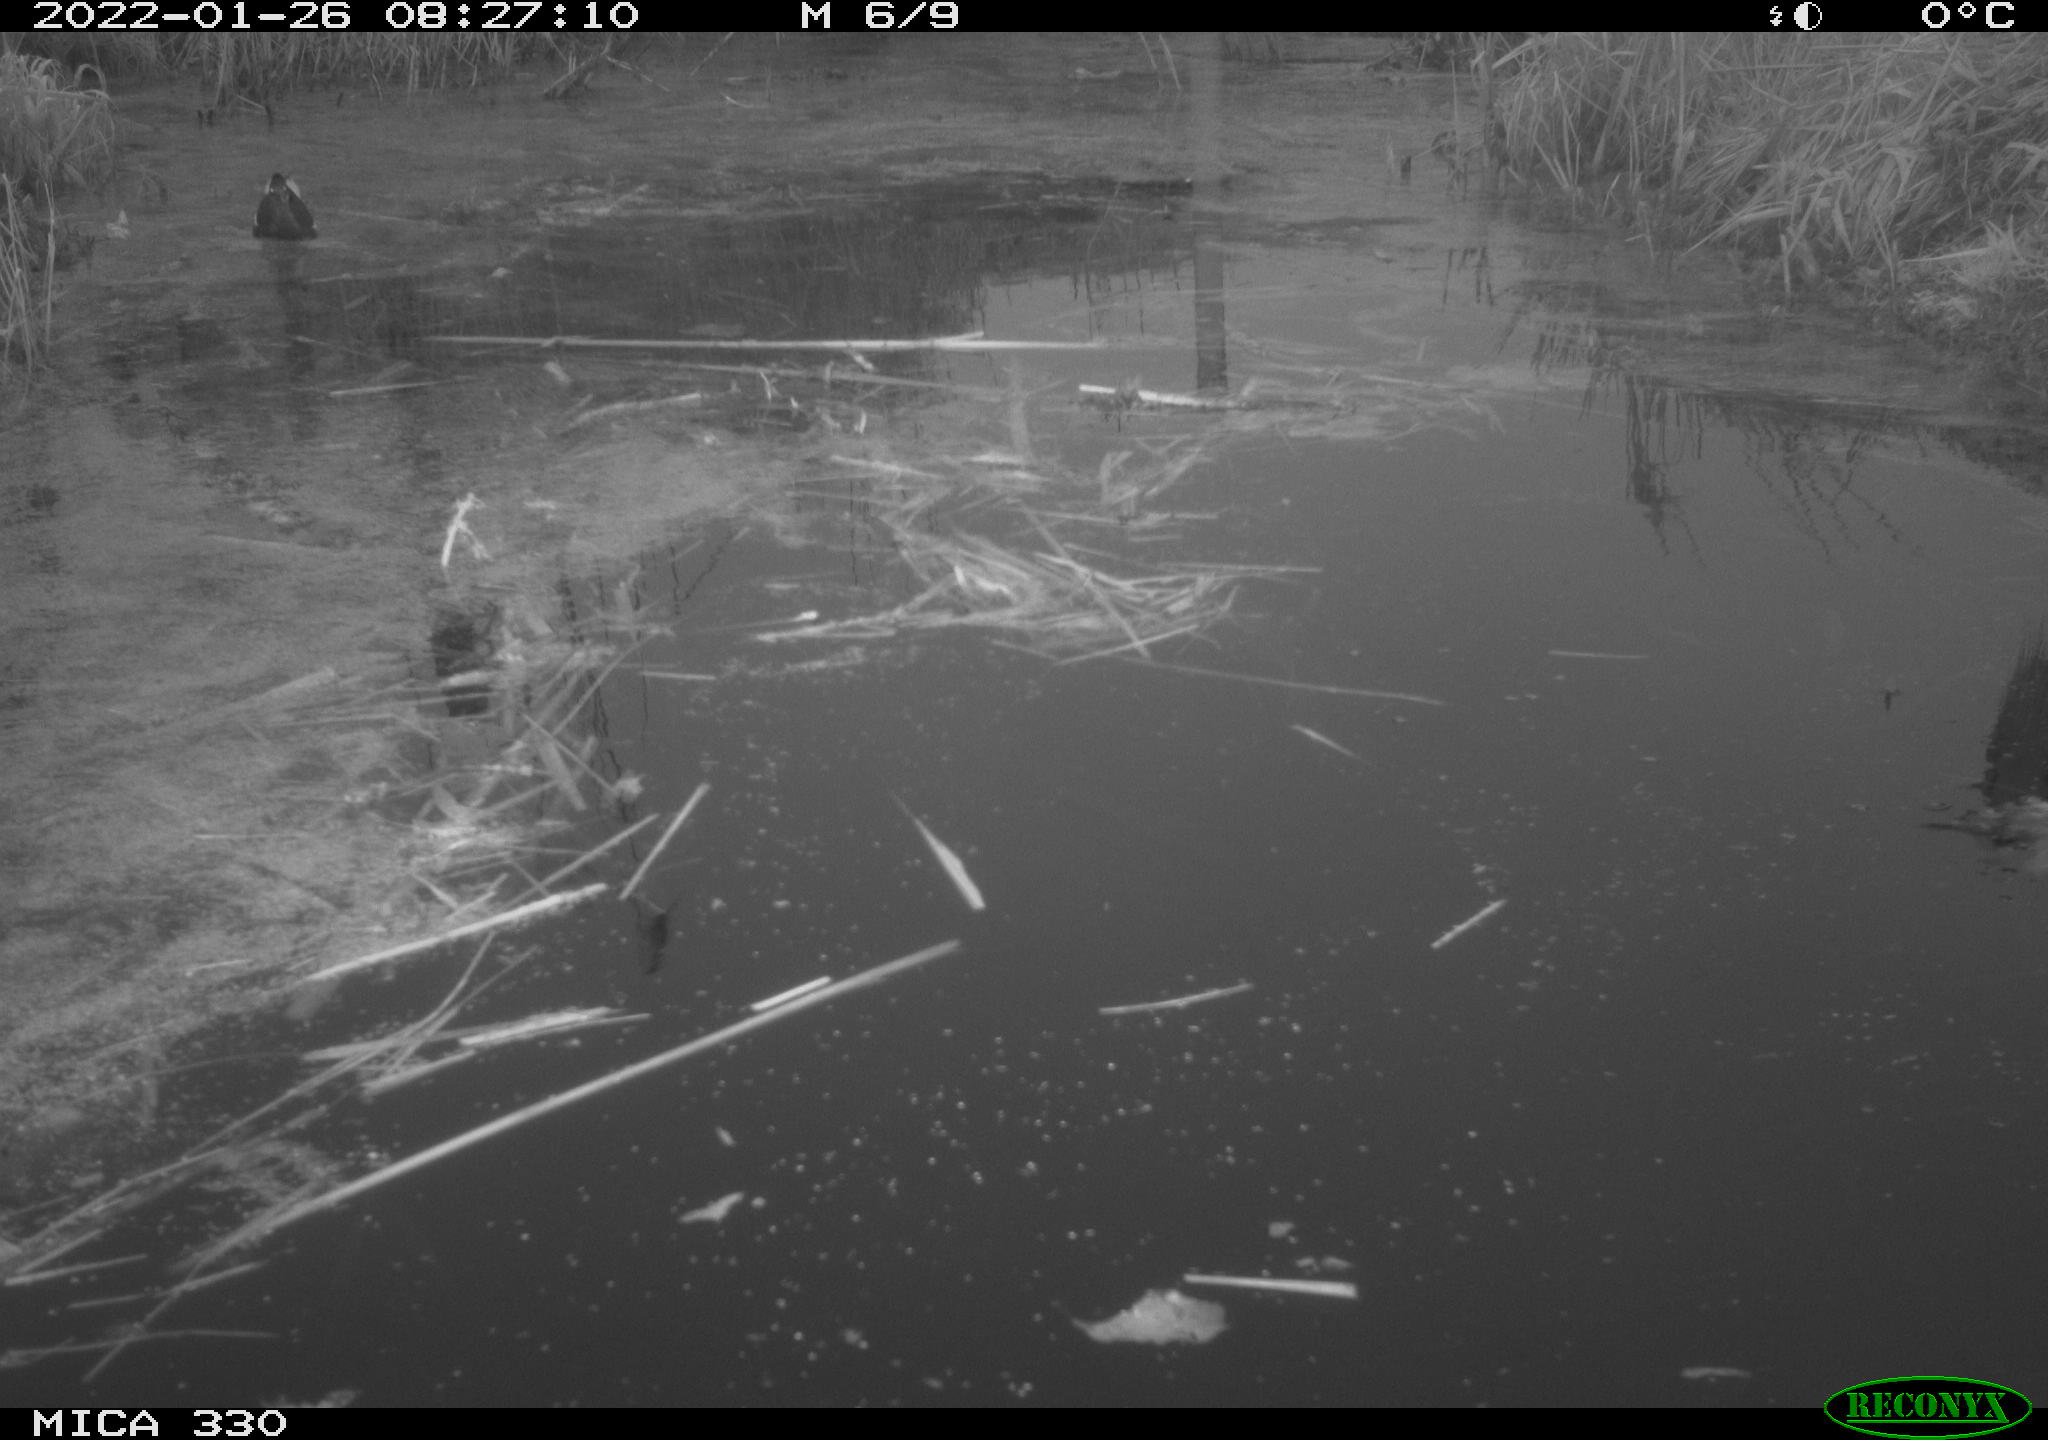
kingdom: Animalia
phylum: Chordata
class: Aves
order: Gruiformes
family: Rallidae
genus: Gallinula
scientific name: Gallinula chloropus
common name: Common moorhen
